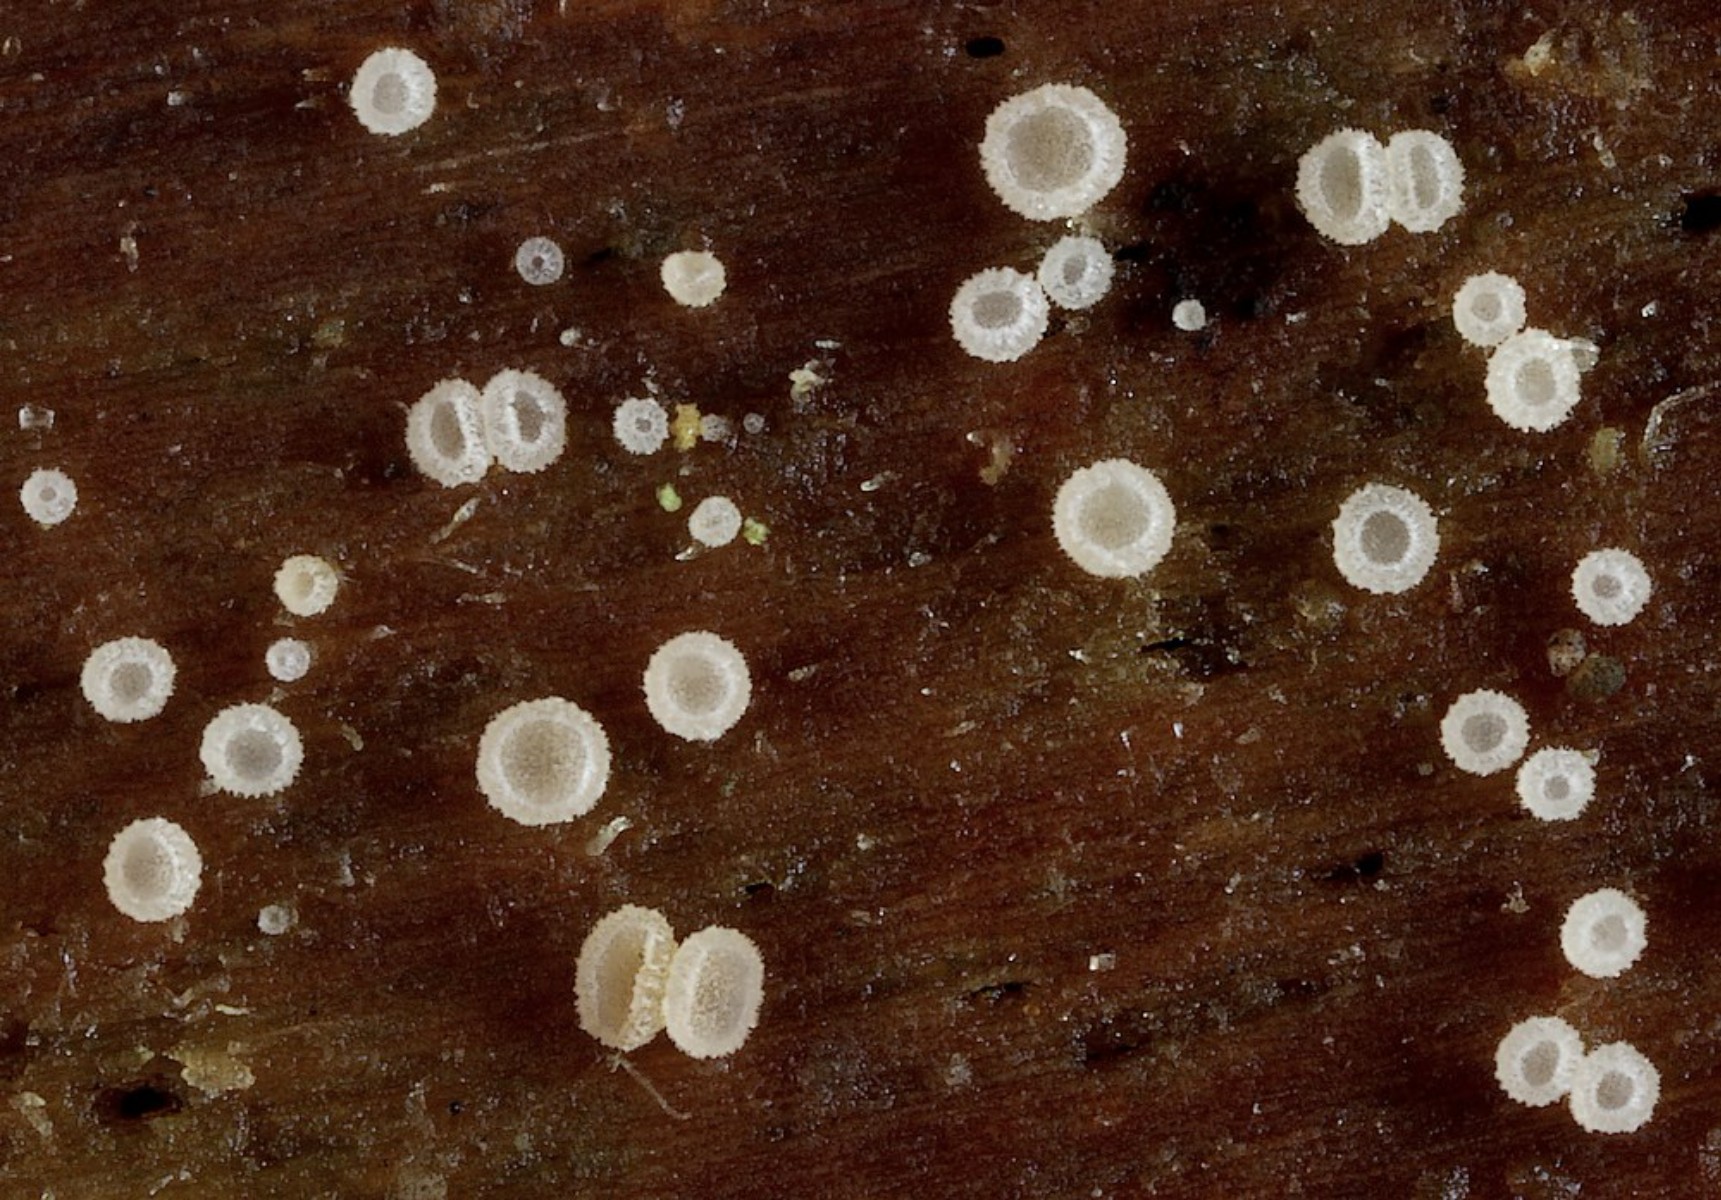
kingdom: Fungi
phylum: Ascomycota
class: Leotiomycetes
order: Helotiales
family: Hyaloscyphaceae
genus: Eupezizella
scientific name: Eupezizella aureliella
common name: almindelig klarskive
